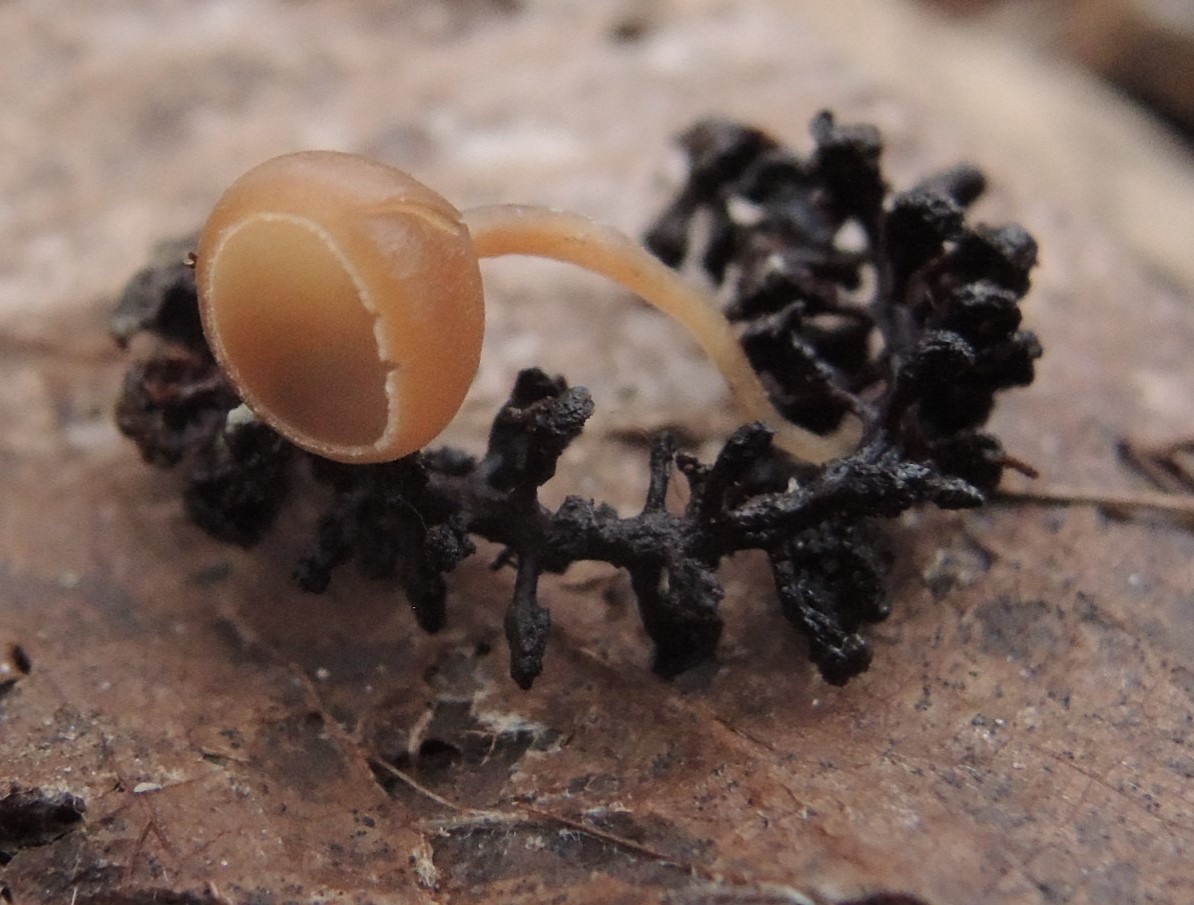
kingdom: Fungi
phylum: Ascomycota
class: Leotiomycetes
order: Helotiales
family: Sclerotiniaceae
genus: Ciboria
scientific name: Ciboria amentacea
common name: ellerakle-knoldskive
